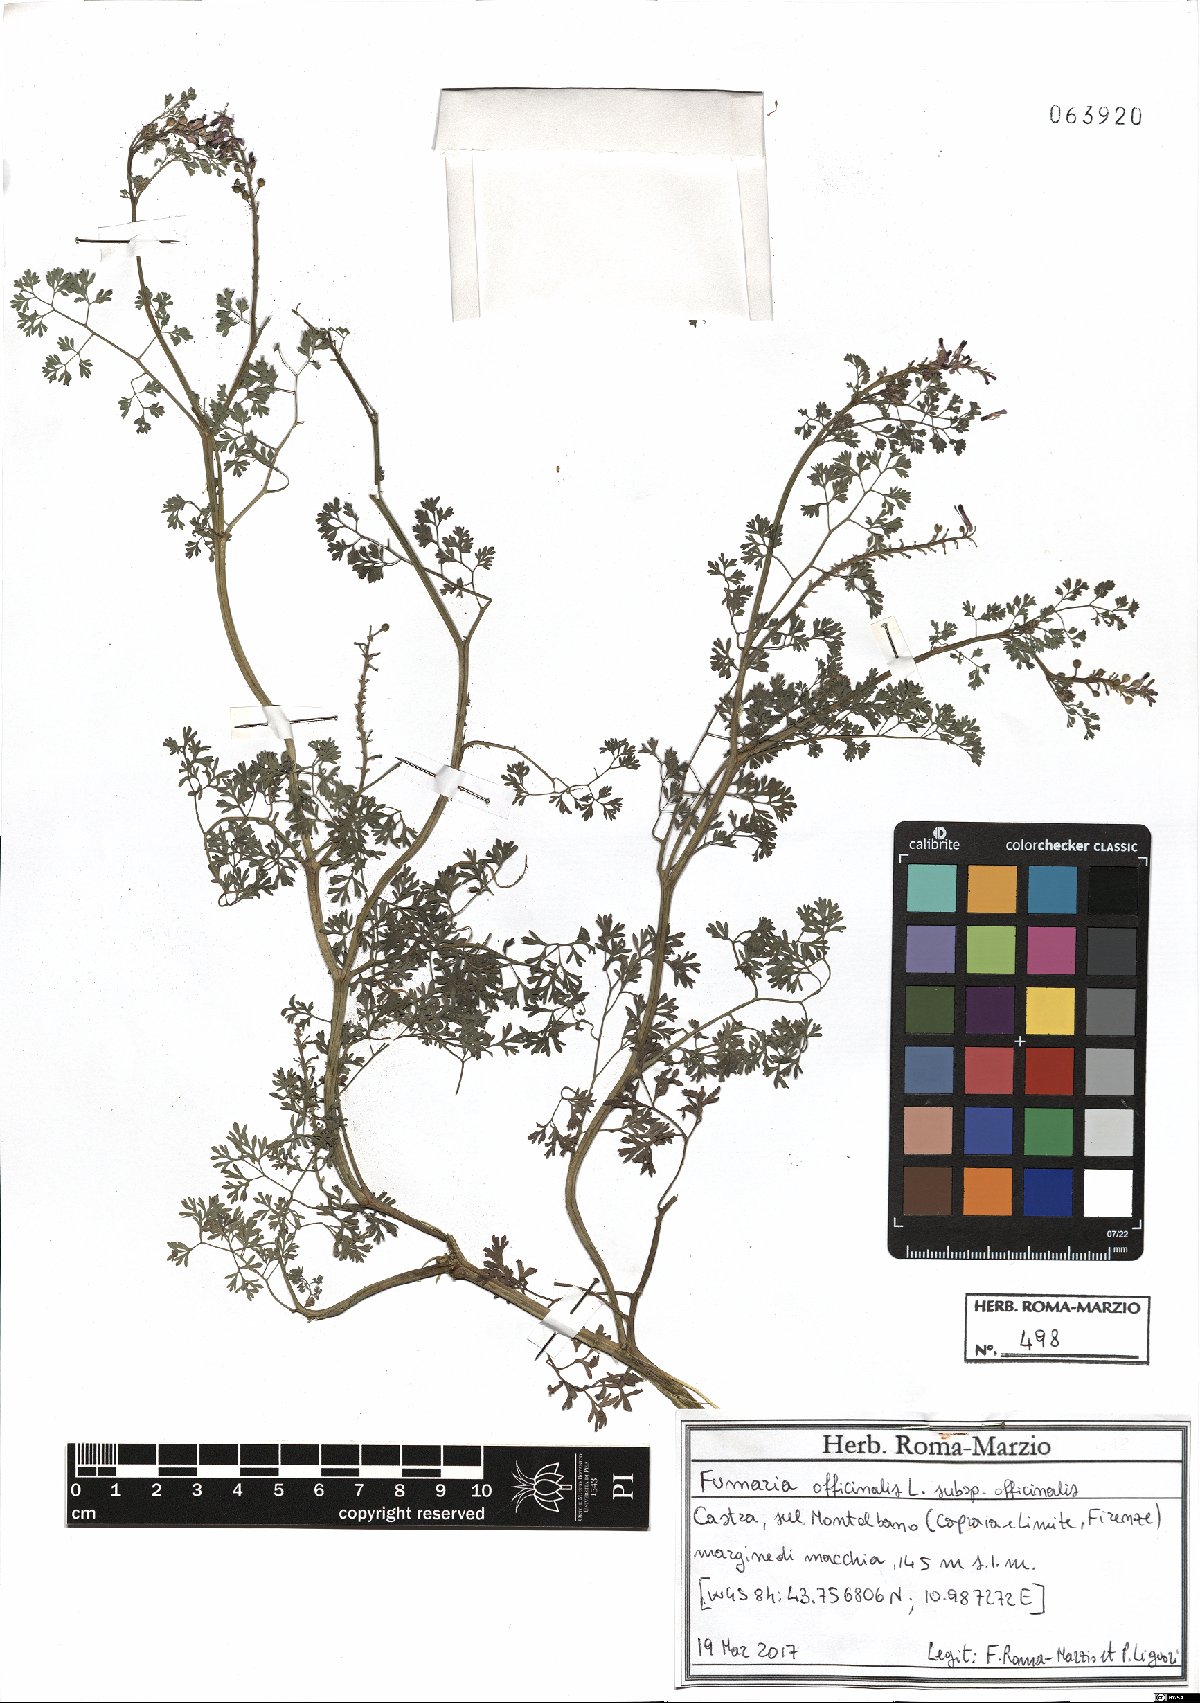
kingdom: Plantae
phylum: Tracheophyta
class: Magnoliopsida
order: Ranunculales
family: Papaveraceae
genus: Fumaria
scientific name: Fumaria officinalis
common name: Common fumitory
